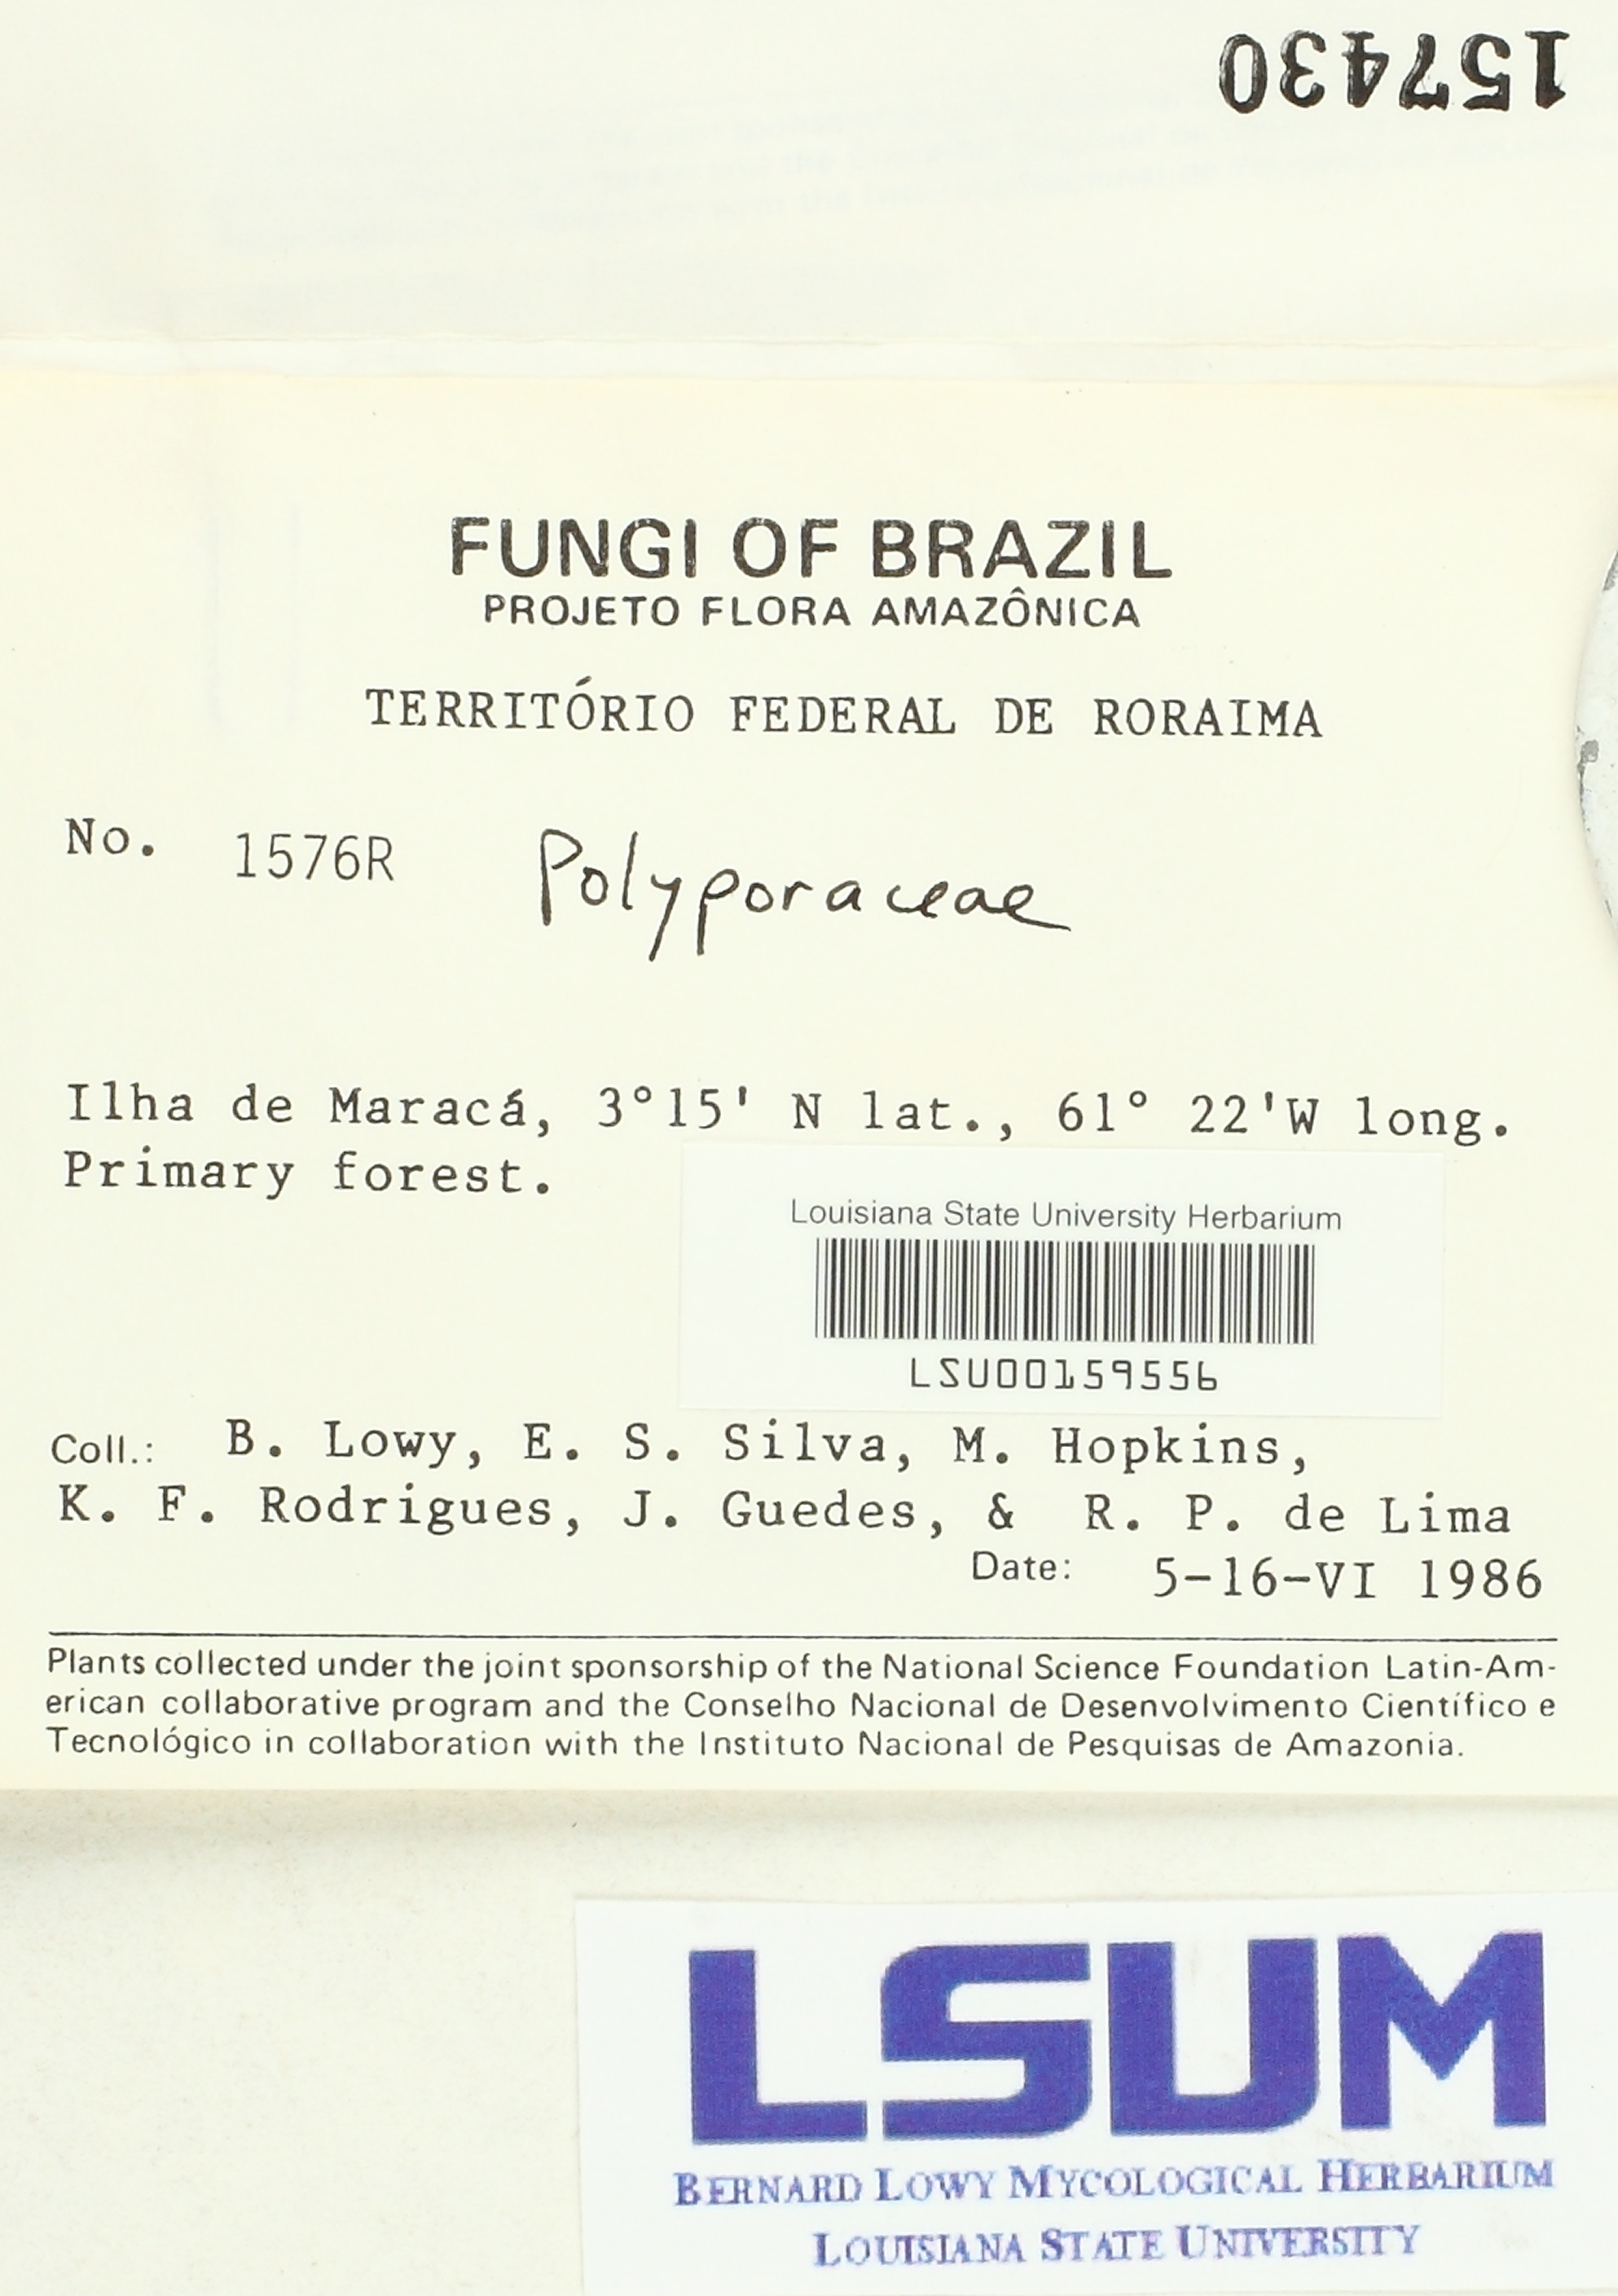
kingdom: Fungi
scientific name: Fungi
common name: Fungi
